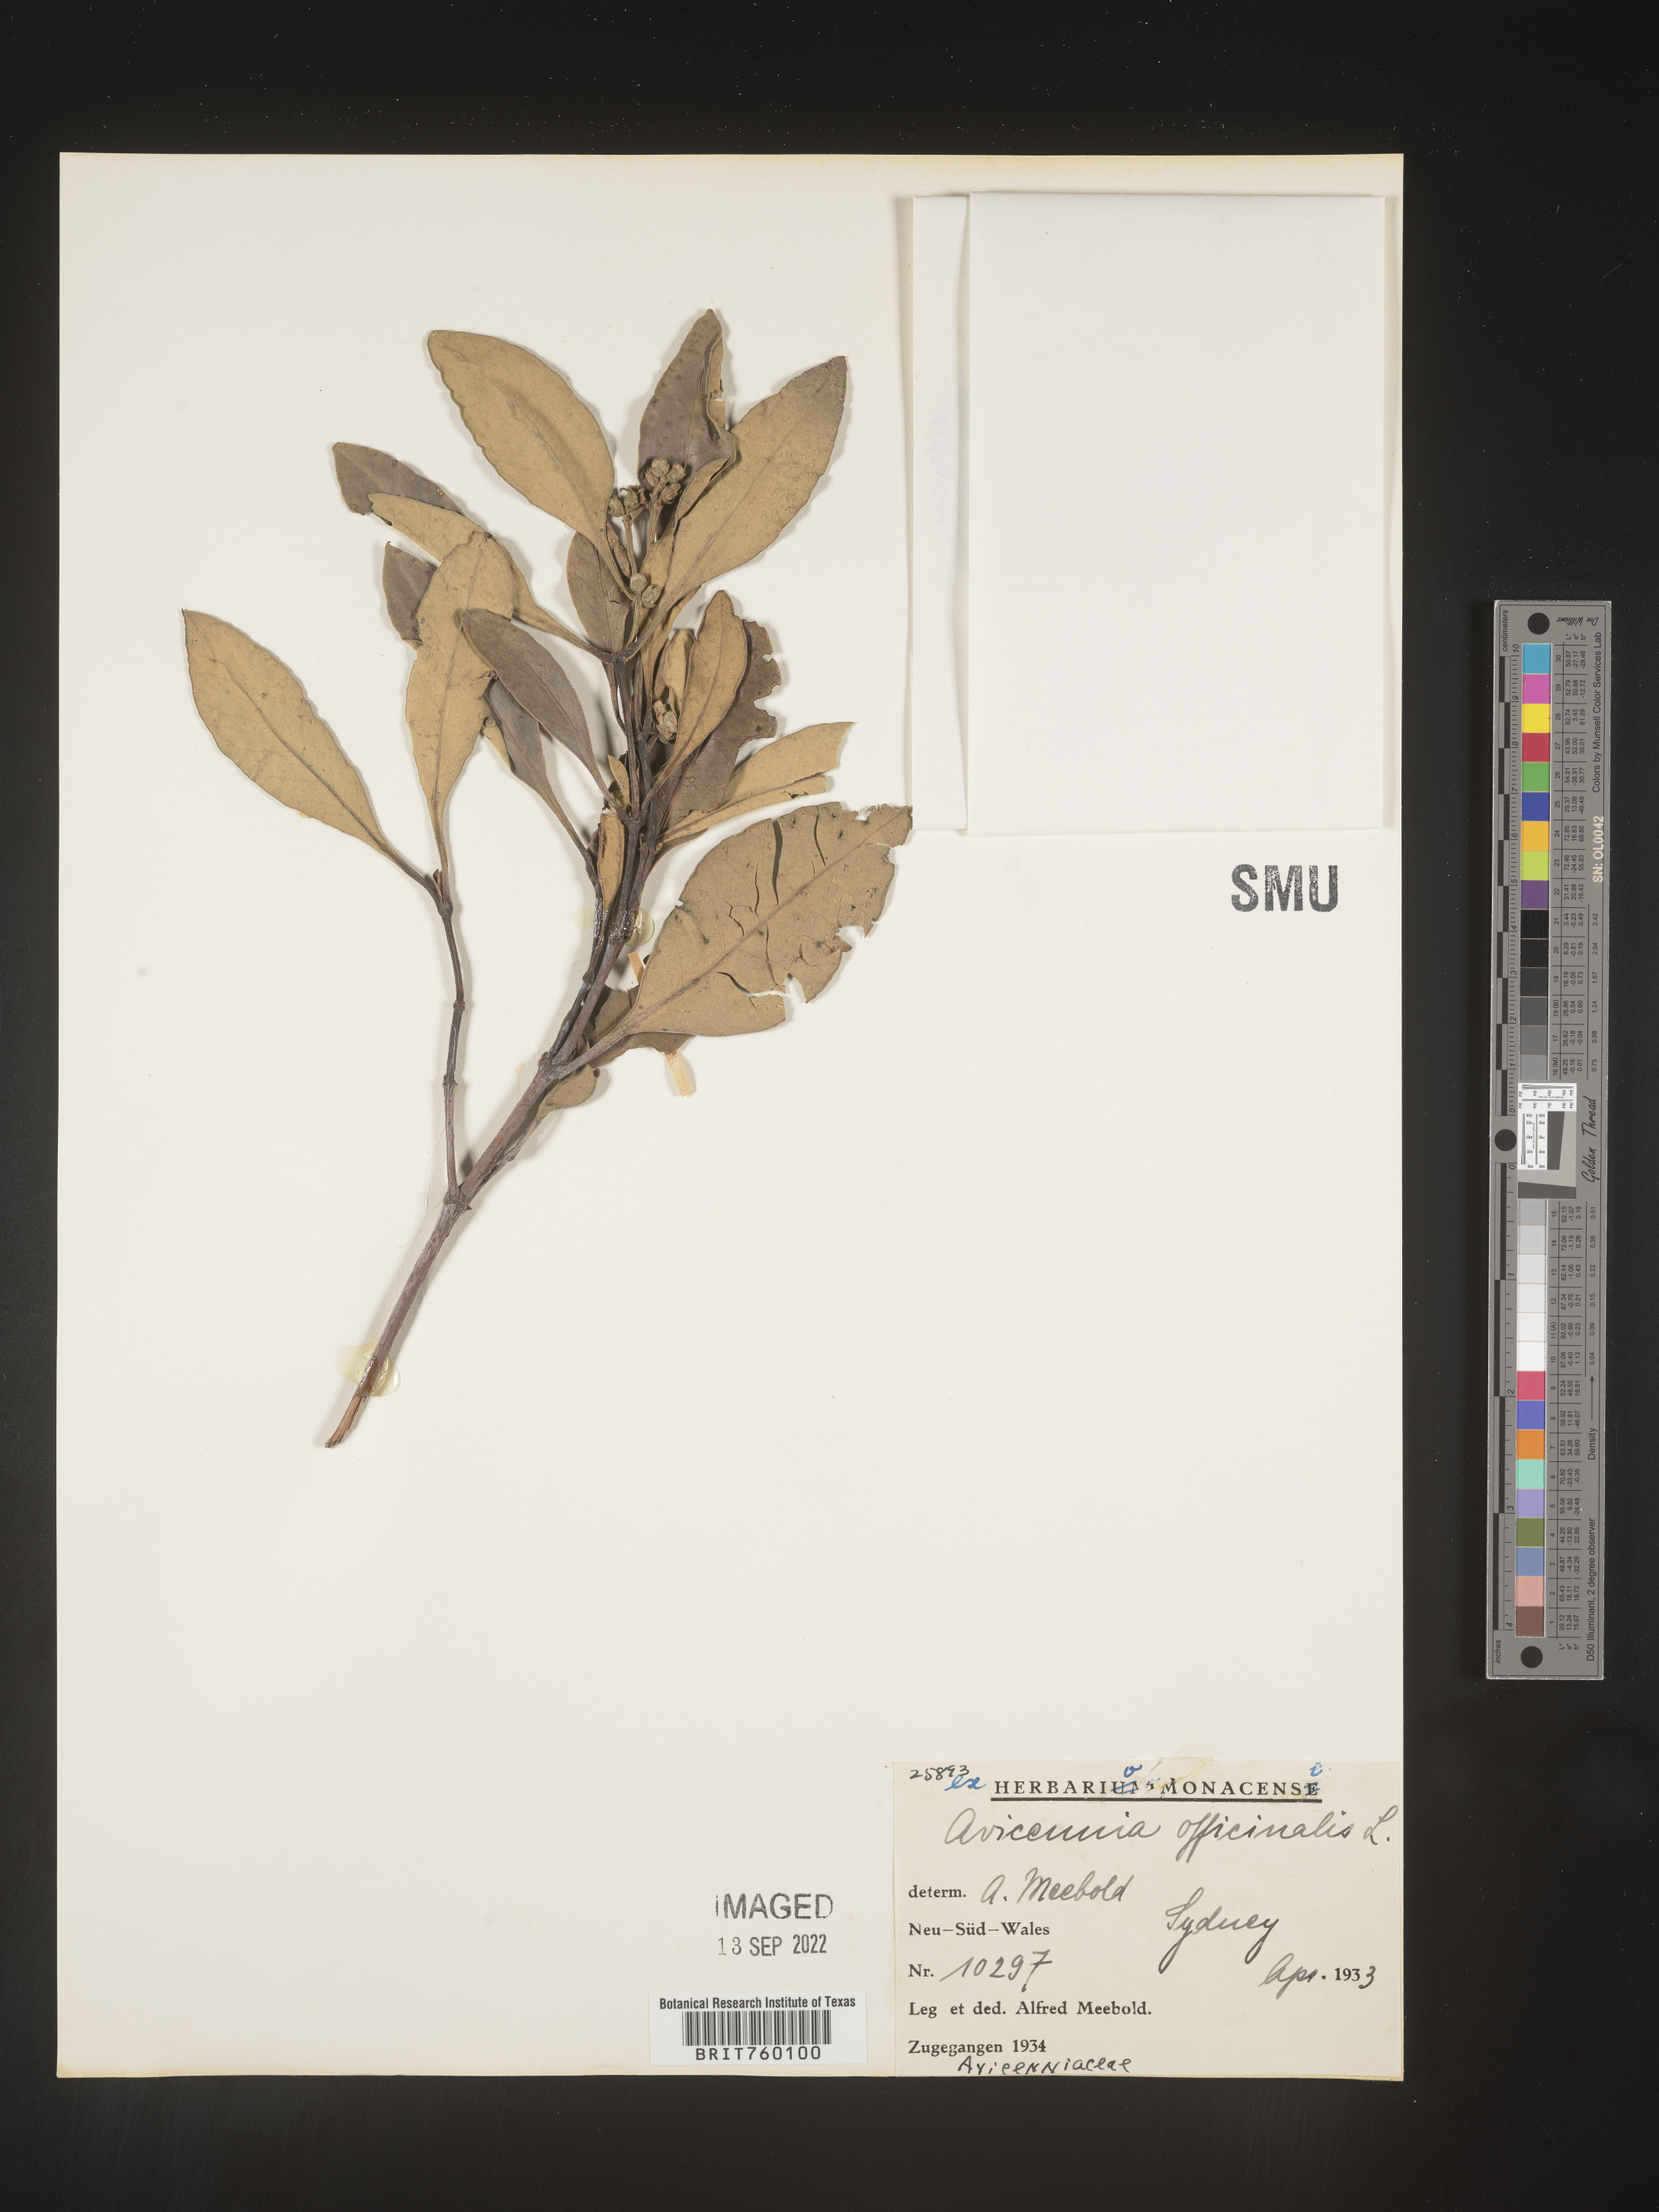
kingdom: Plantae
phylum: Tracheophyta
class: Magnoliopsida
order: Lamiales
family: Acanthaceae
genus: Avicennia
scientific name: Avicennia
